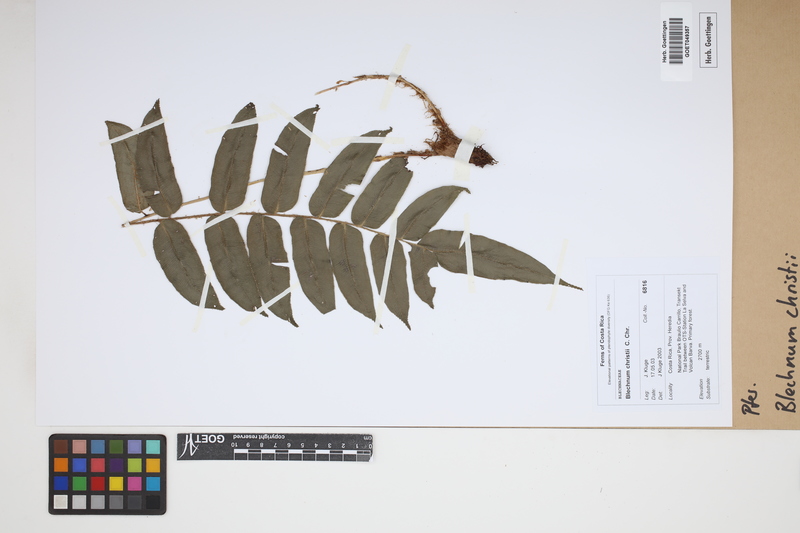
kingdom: Plantae
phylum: Tracheophyta
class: Polypodiopsida
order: Polypodiales
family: Blechnaceae
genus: Parablechnum
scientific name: Parablechnum christii
